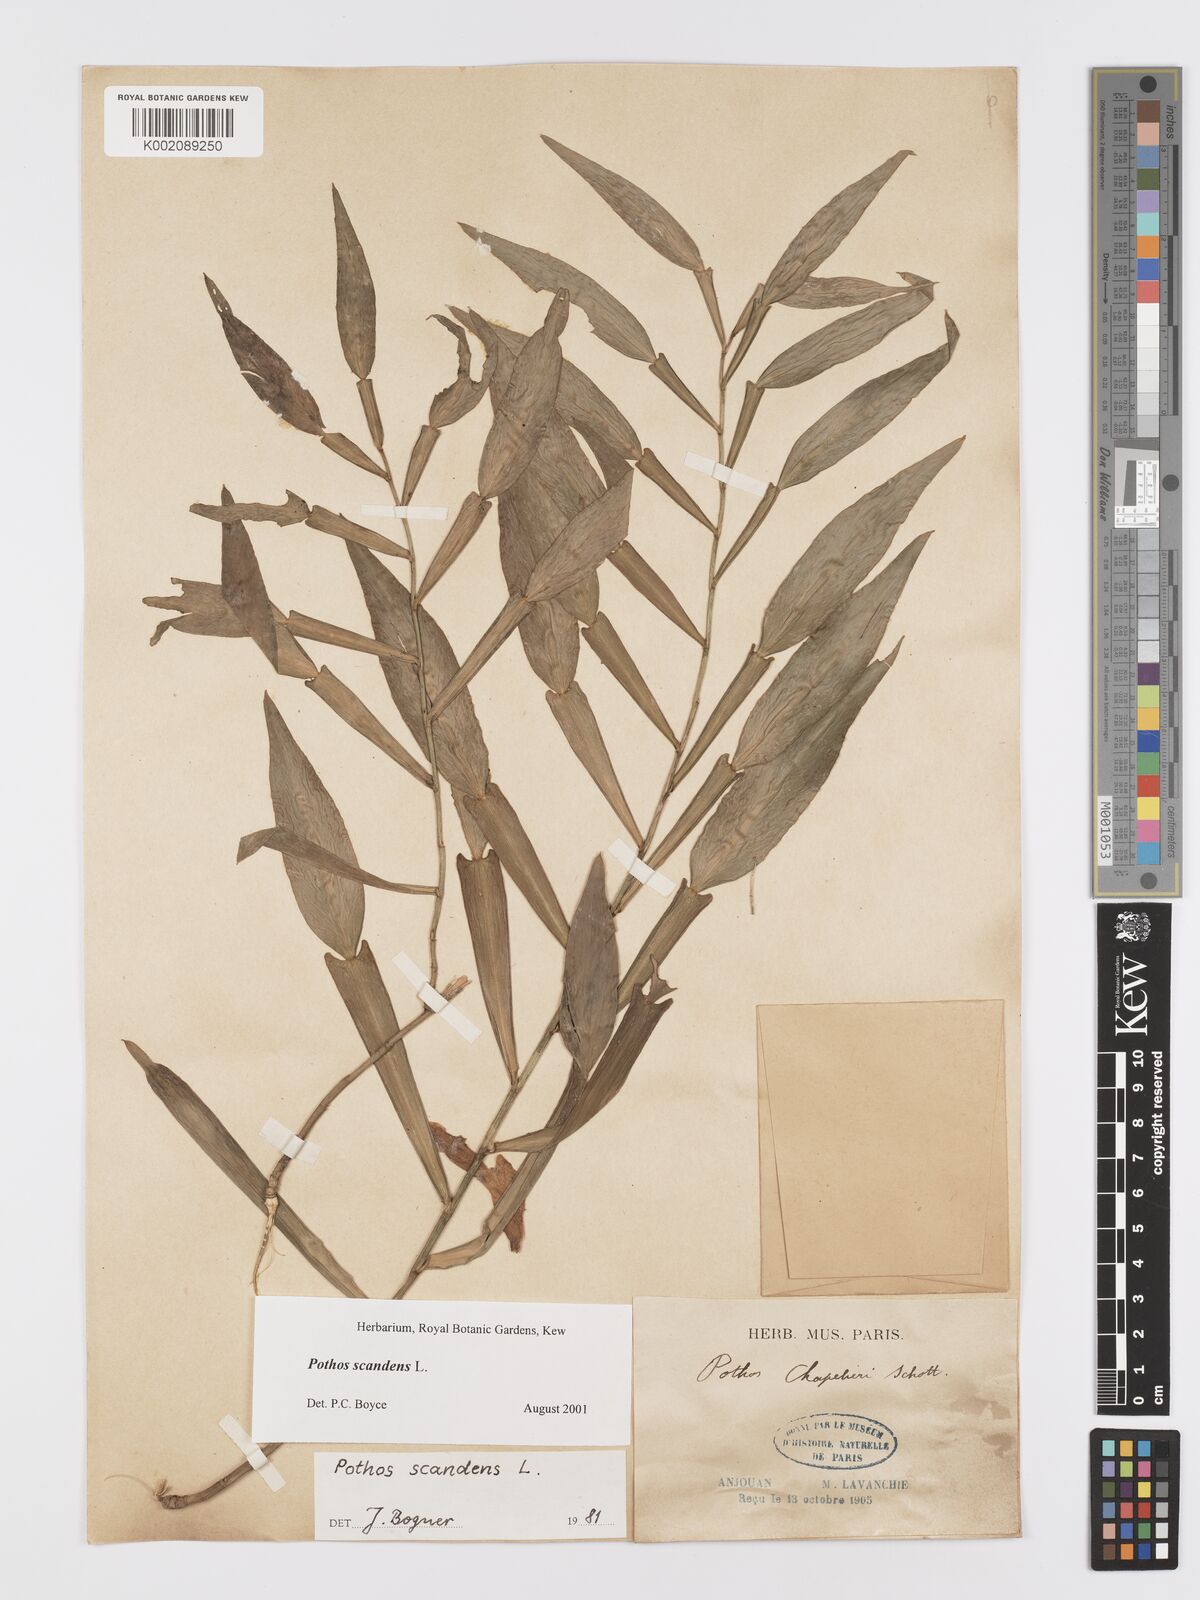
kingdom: Plantae
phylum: Tracheophyta
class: Liliopsida
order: Alismatales
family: Araceae
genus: Pothos
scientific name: Pothos scandens
